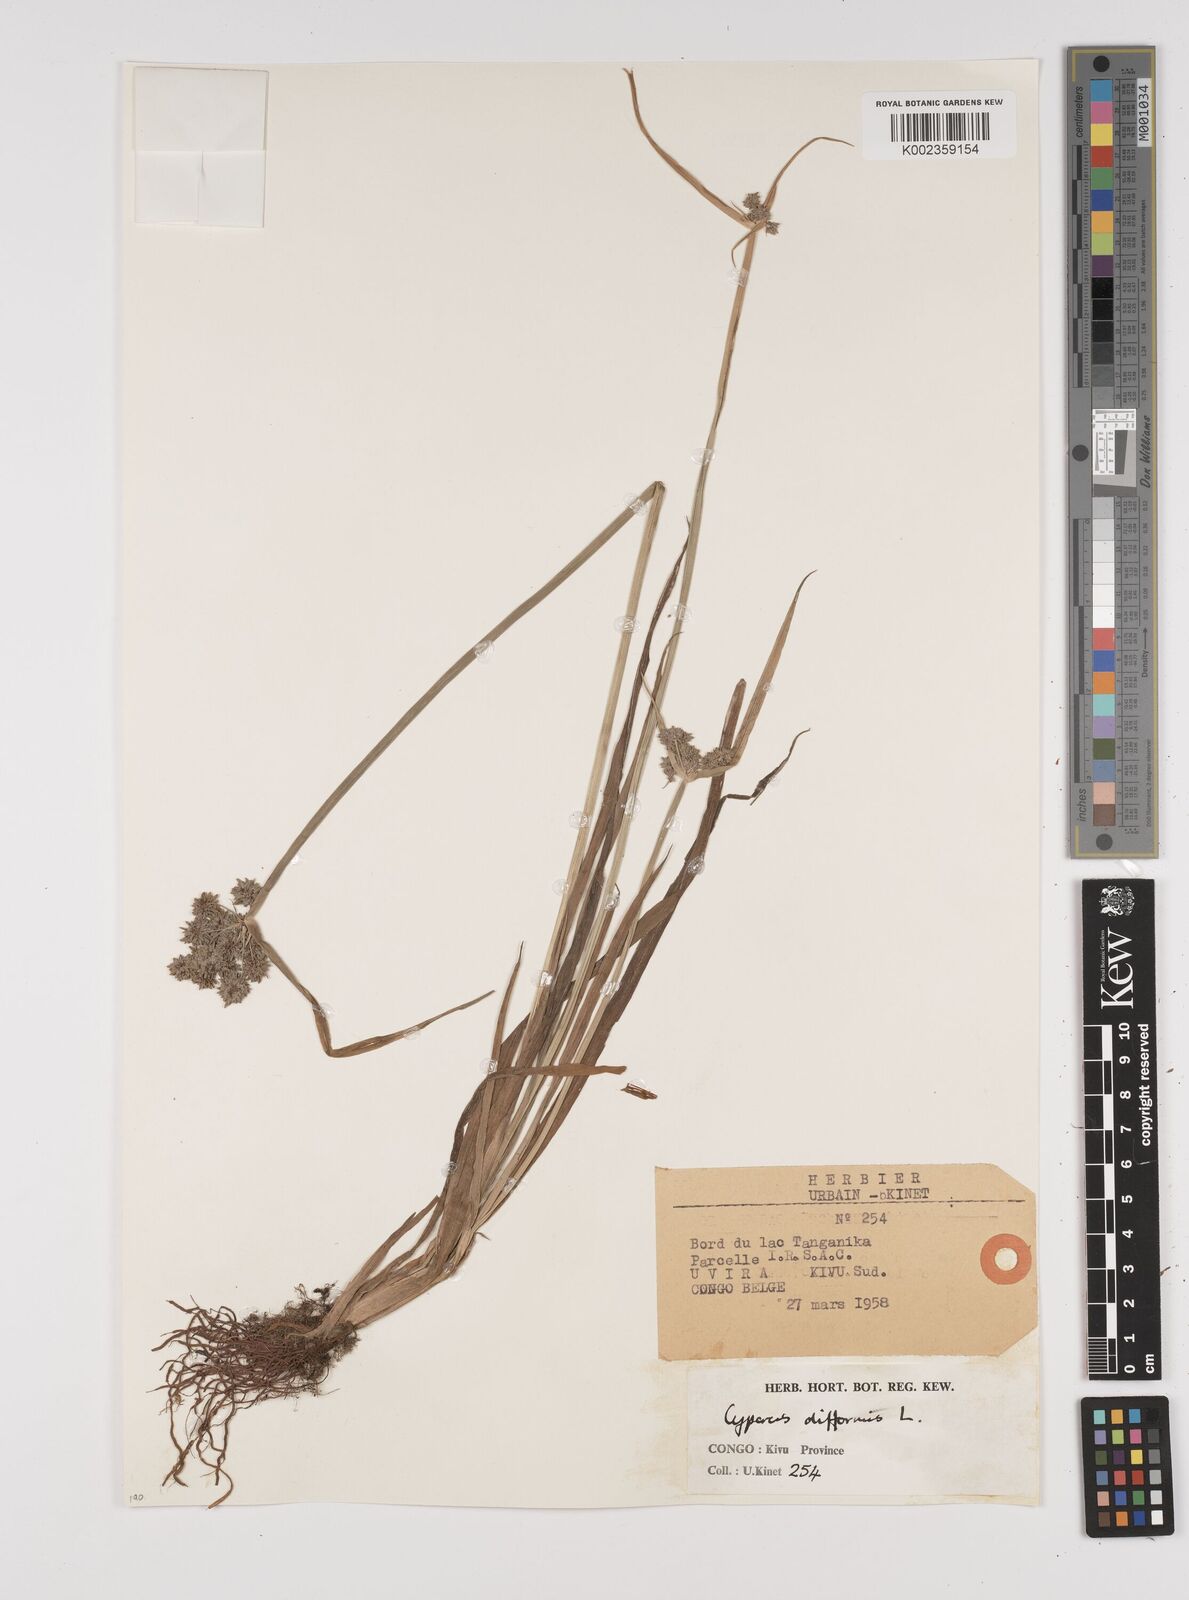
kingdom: Plantae
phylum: Tracheophyta
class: Liliopsida
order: Poales
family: Cyperaceae
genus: Cyperus
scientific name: Cyperus difformis
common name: Variable flatsedge
